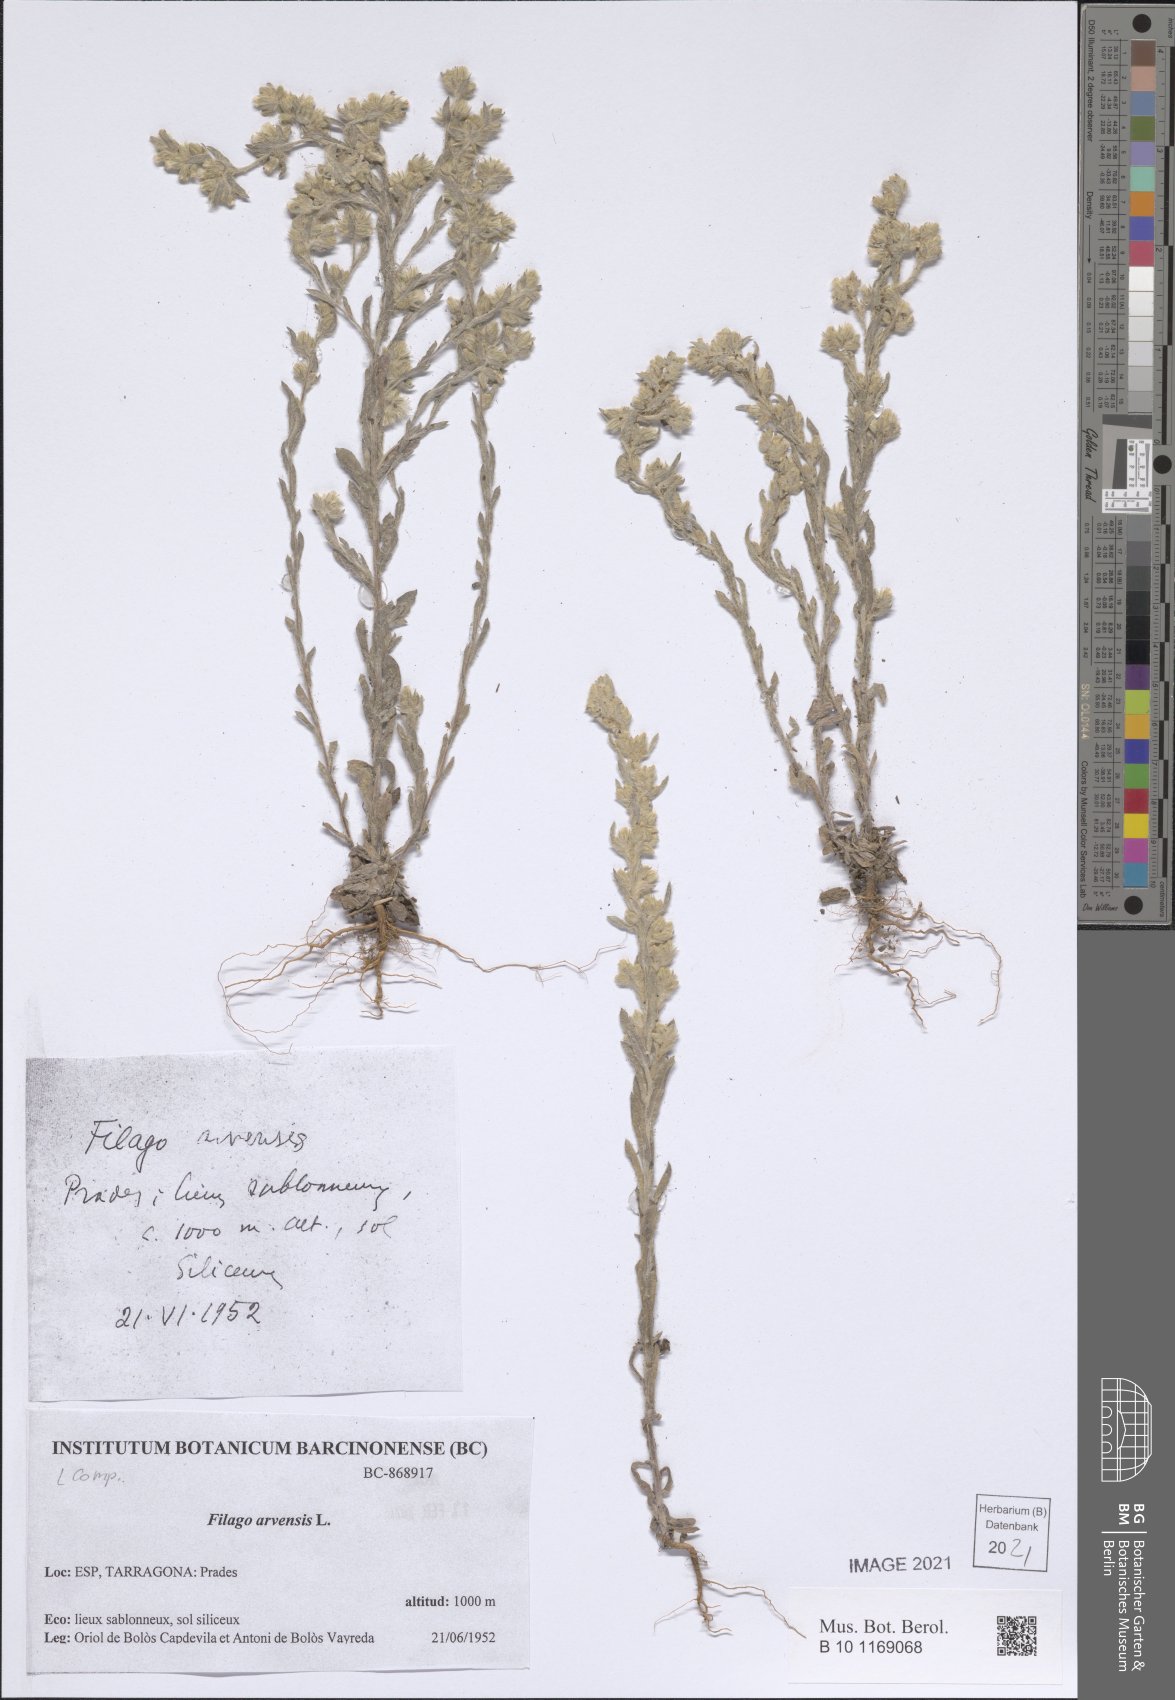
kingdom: Plantae
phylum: Tracheophyta
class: Magnoliopsida
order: Asterales
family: Asteraceae
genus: Filago
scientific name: Filago arvensis
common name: Field cudweed
